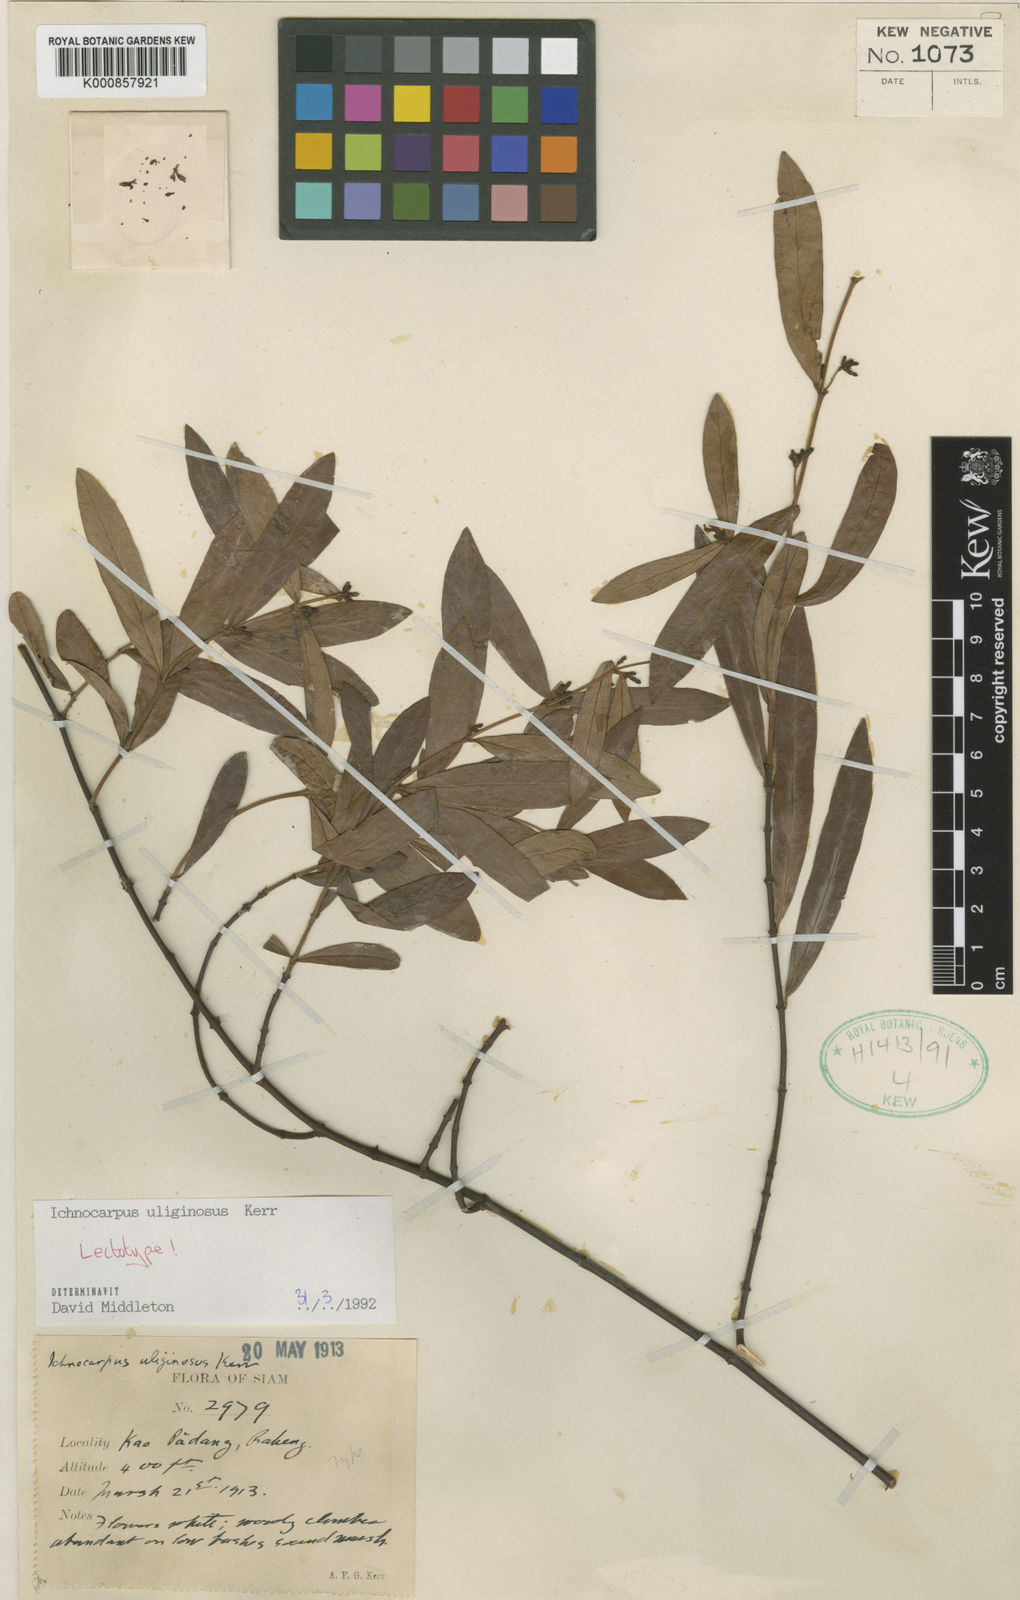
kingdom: Plantae
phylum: Tracheophyta
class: Magnoliopsida
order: Gentianales
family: Apocynaceae
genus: Ichnocarpus
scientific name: Ichnocarpus uliginosus
